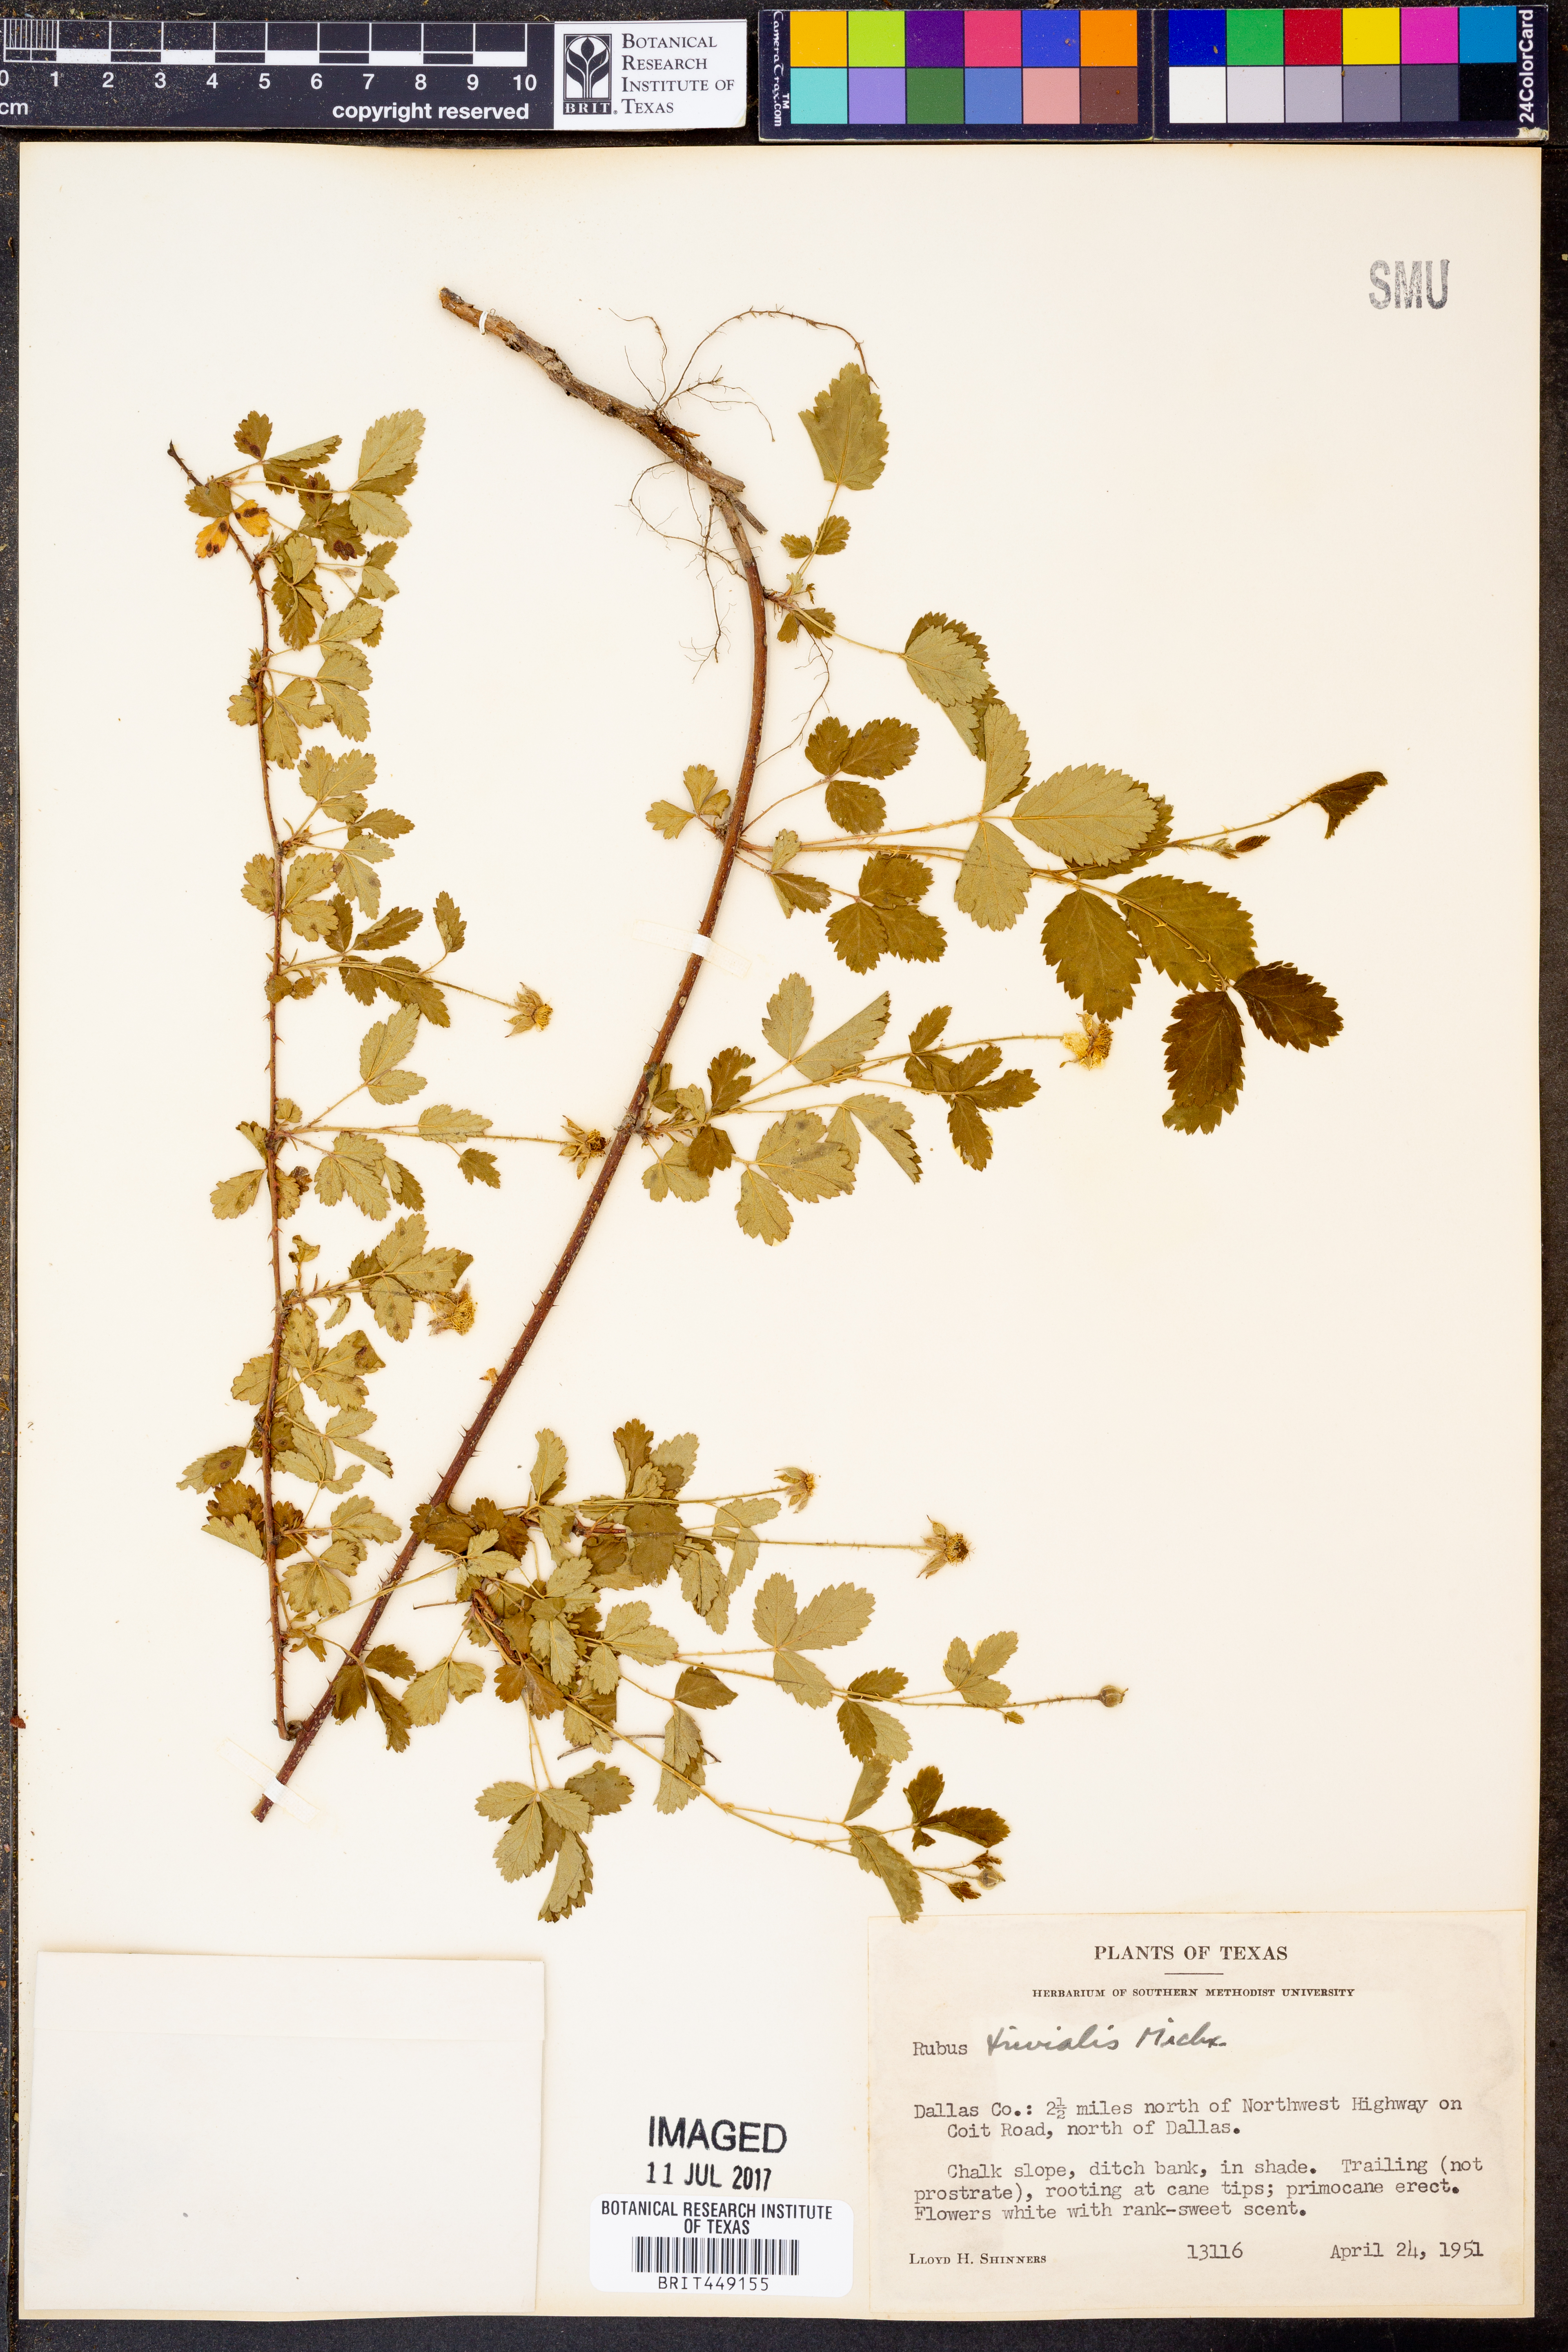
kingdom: Plantae
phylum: Tracheophyta
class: Magnoliopsida
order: Rosales
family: Rosaceae
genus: Rubus
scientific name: Rubus trivialis
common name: Southern dewberry
